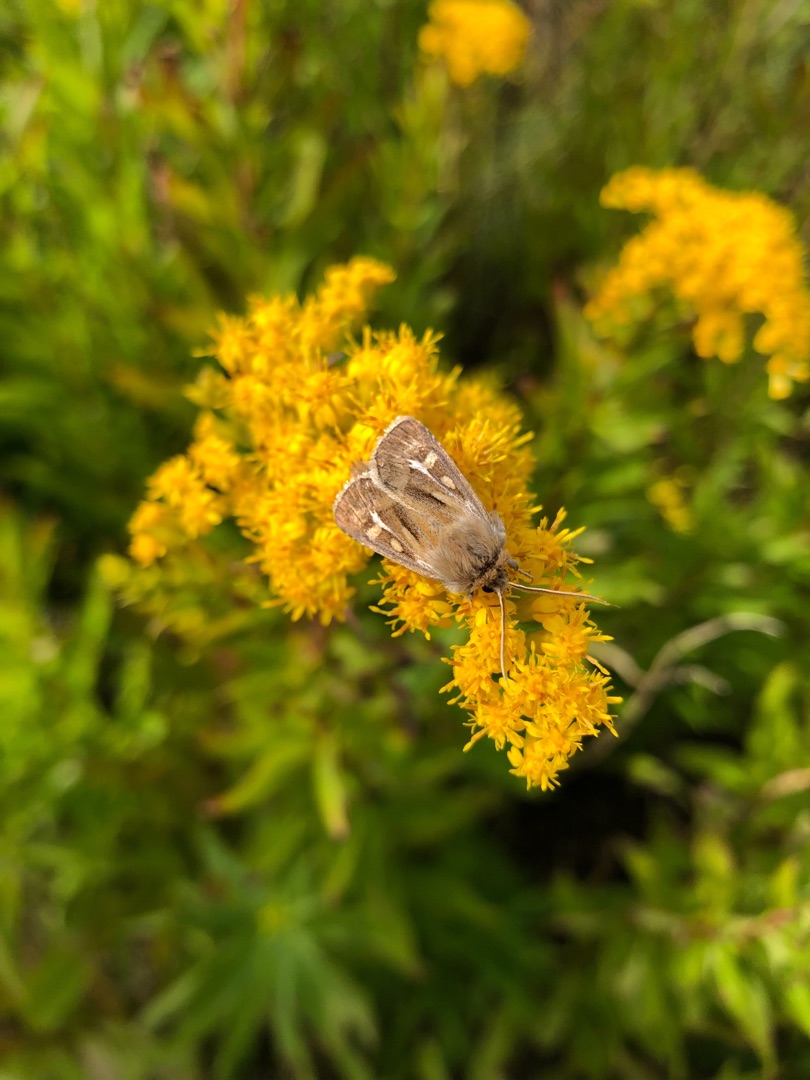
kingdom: Animalia
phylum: Arthropoda
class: Insecta
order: Lepidoptera
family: Noctuidae
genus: Cerapteryx
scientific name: Cerapteryx graminis
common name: Mosebunkeugle
